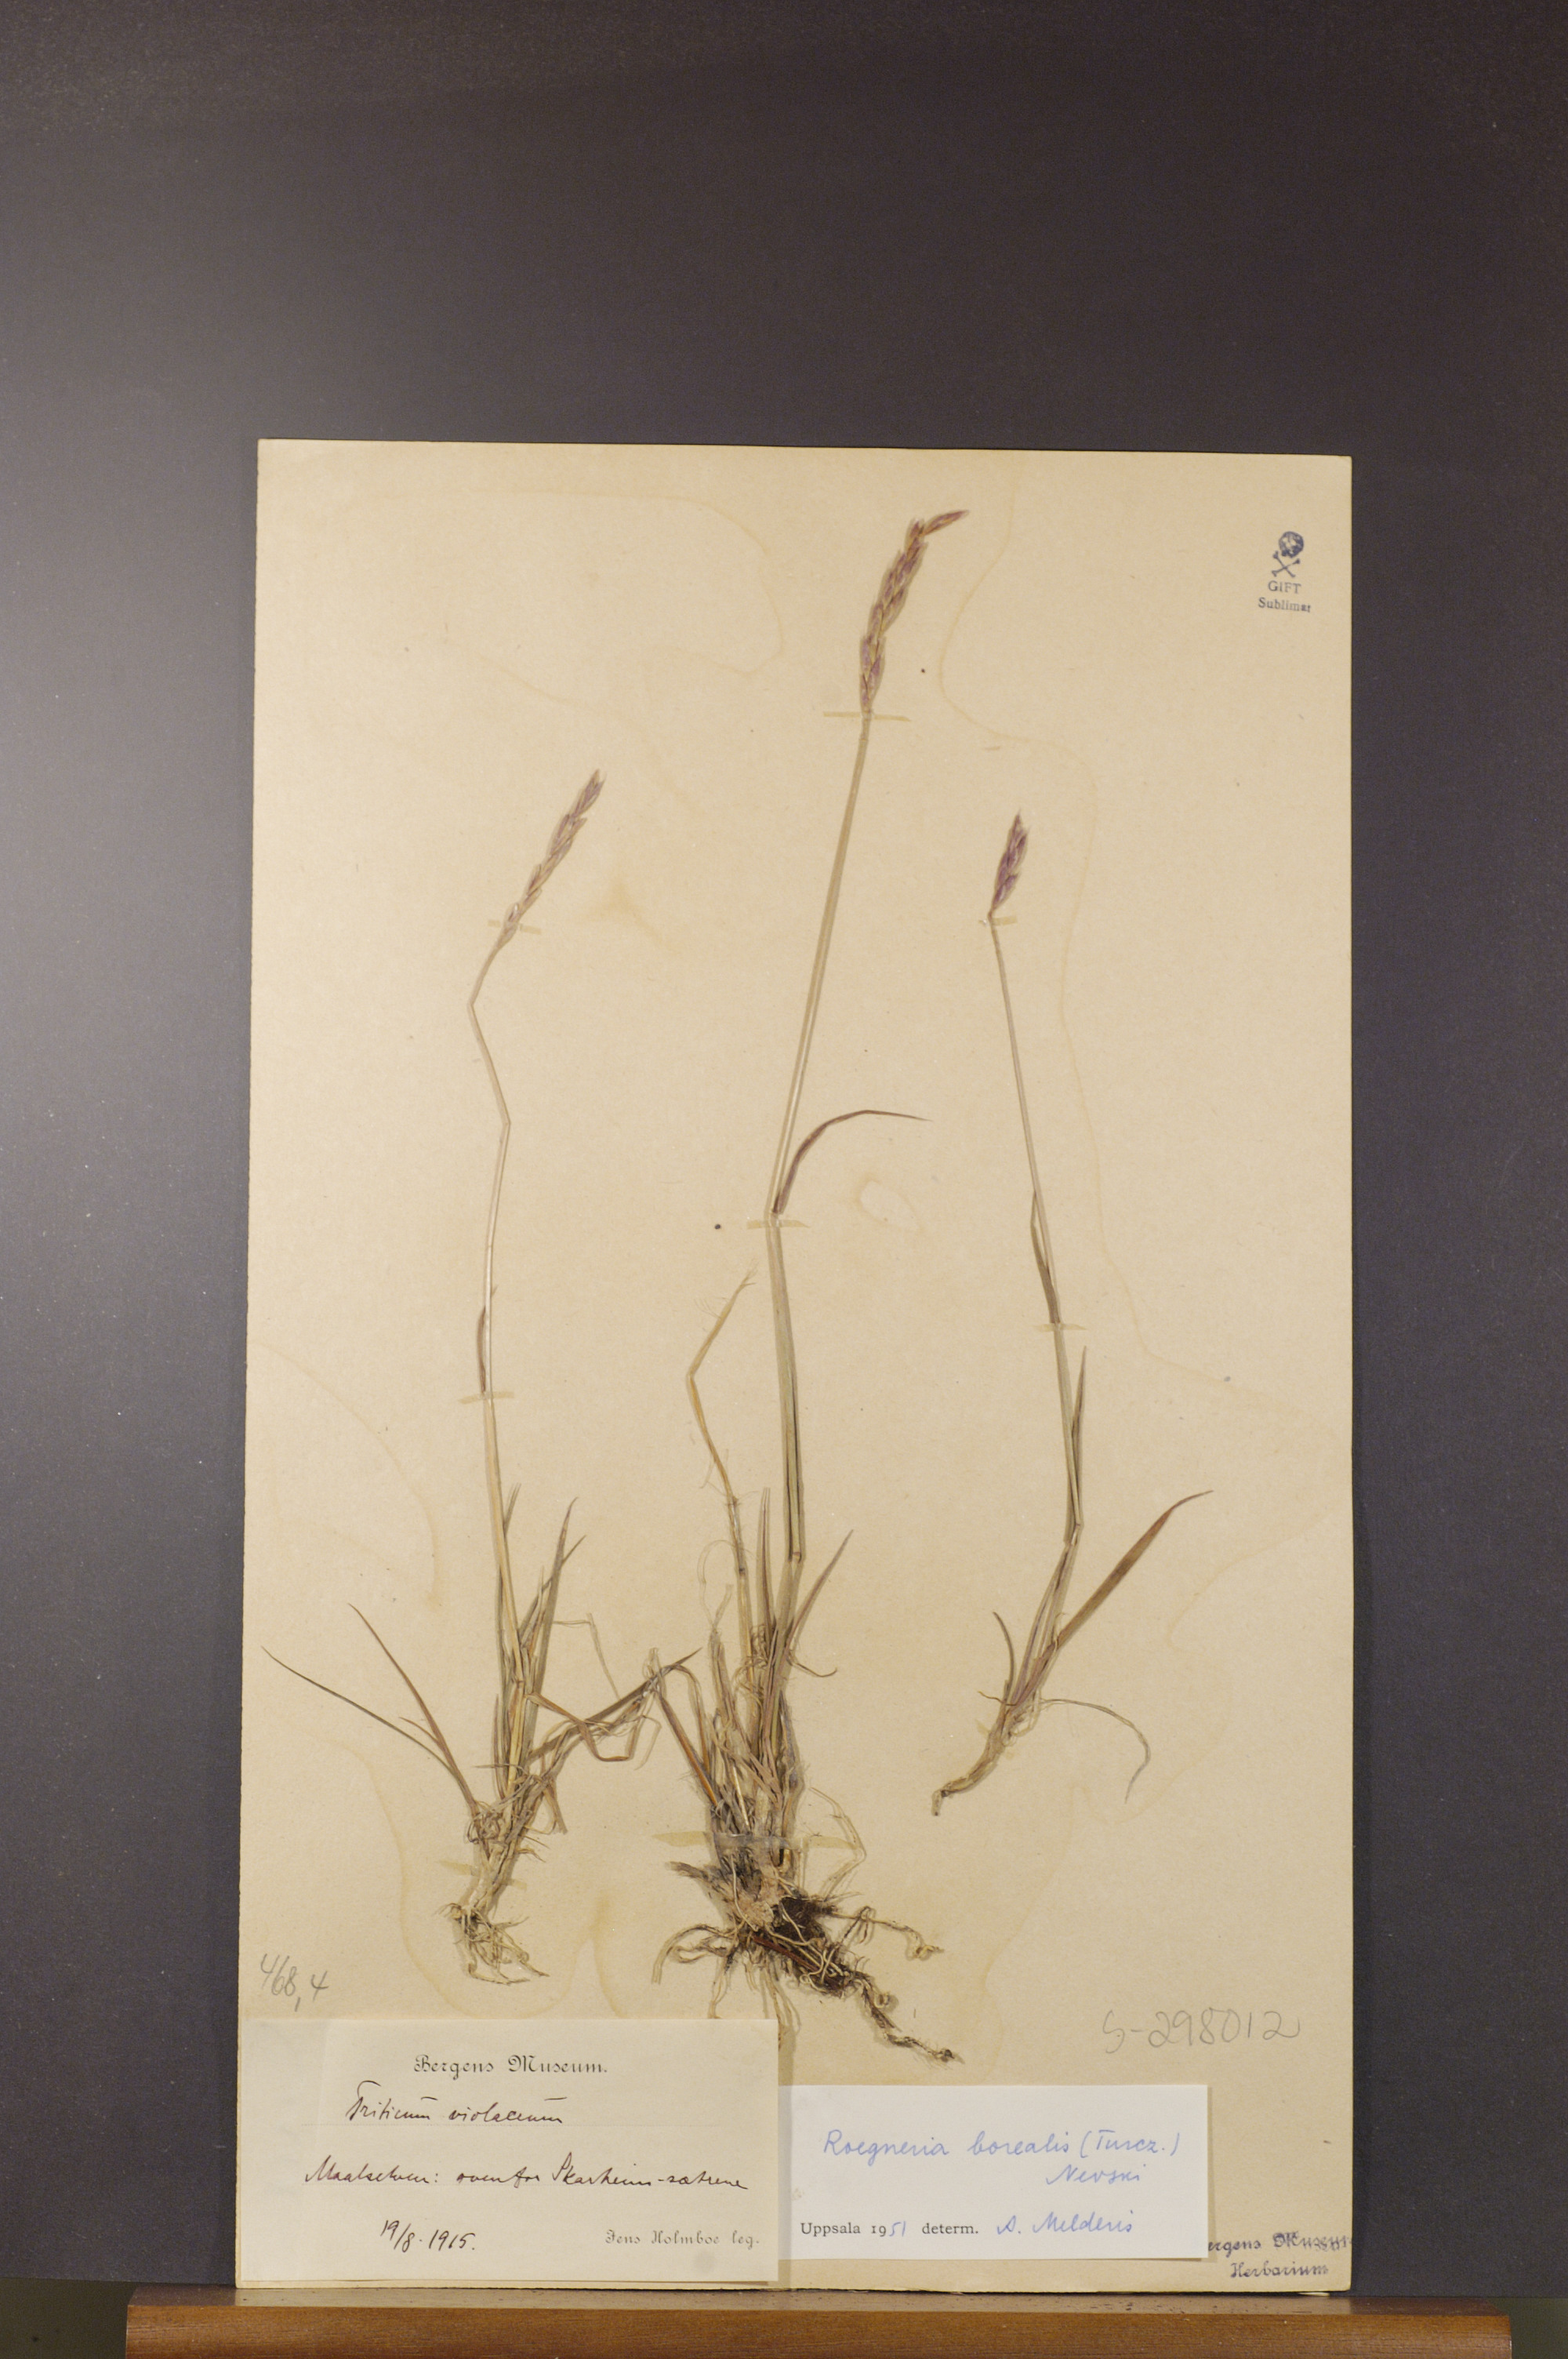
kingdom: Plantae
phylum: Tracheophyta
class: Liliopsida
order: Poales
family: Poaceae
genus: Elymus
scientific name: Elymus macrourus
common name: Northern wheatgrass
